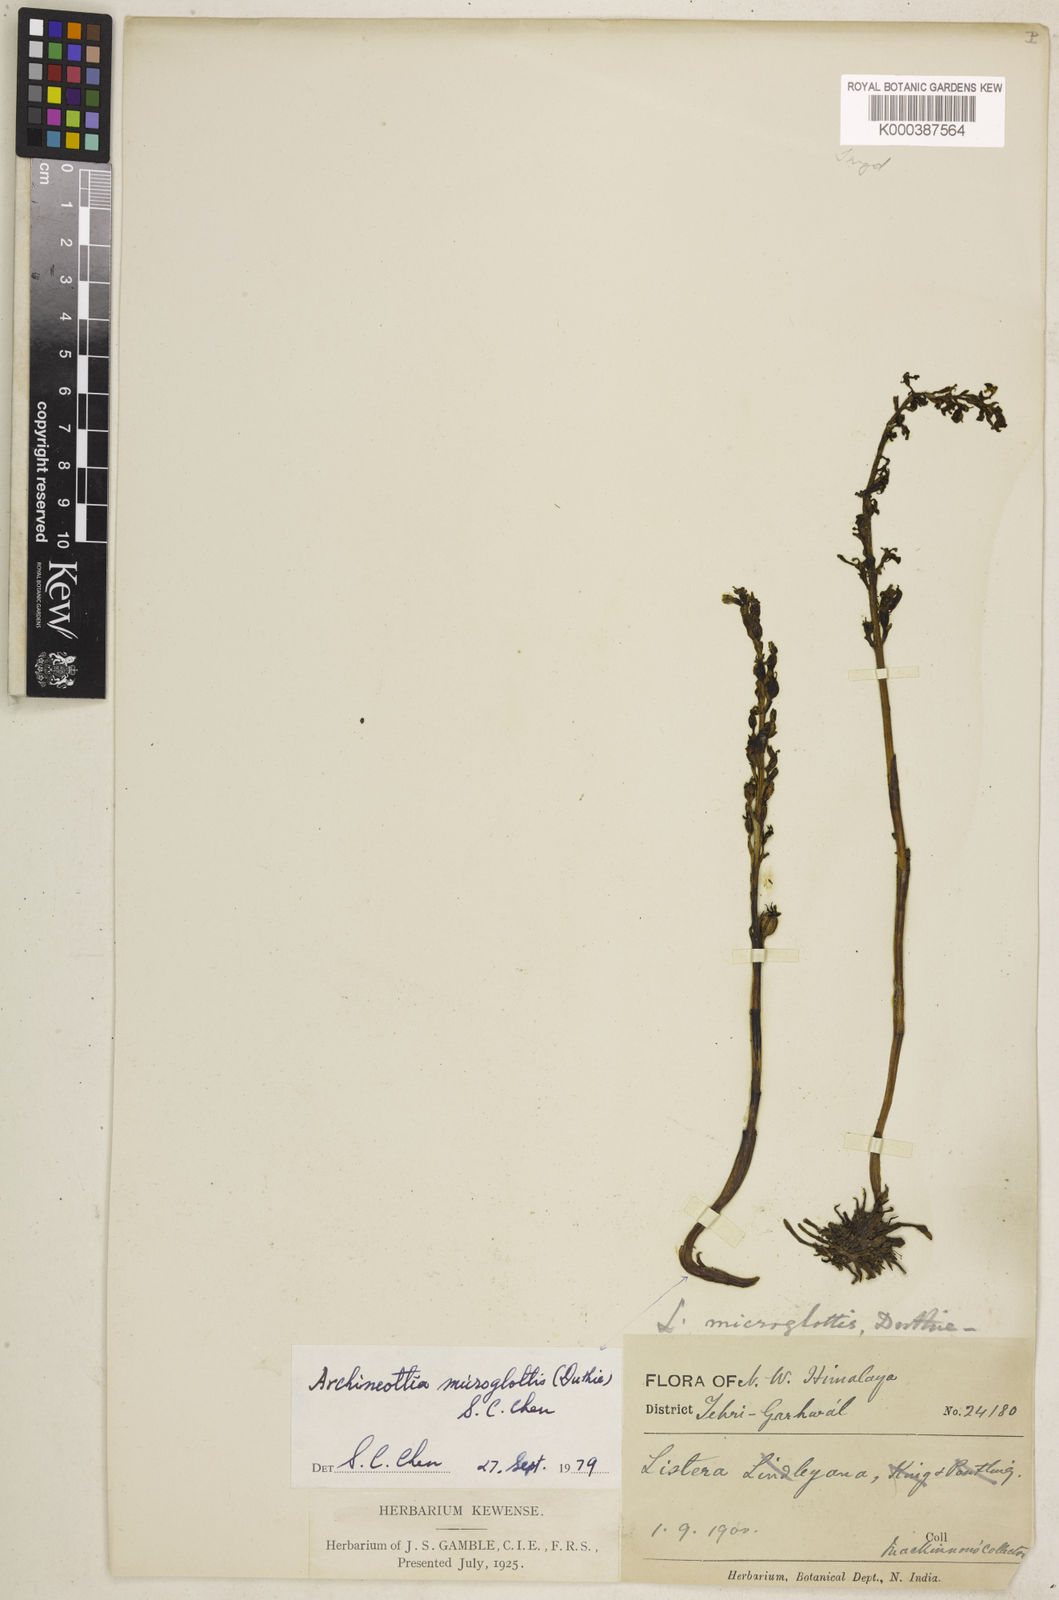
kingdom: Plantae
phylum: Tracheophyta
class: Liliopsida
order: Asparagales
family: Orchidaceae
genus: Neottia
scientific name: Neottia microglottis
